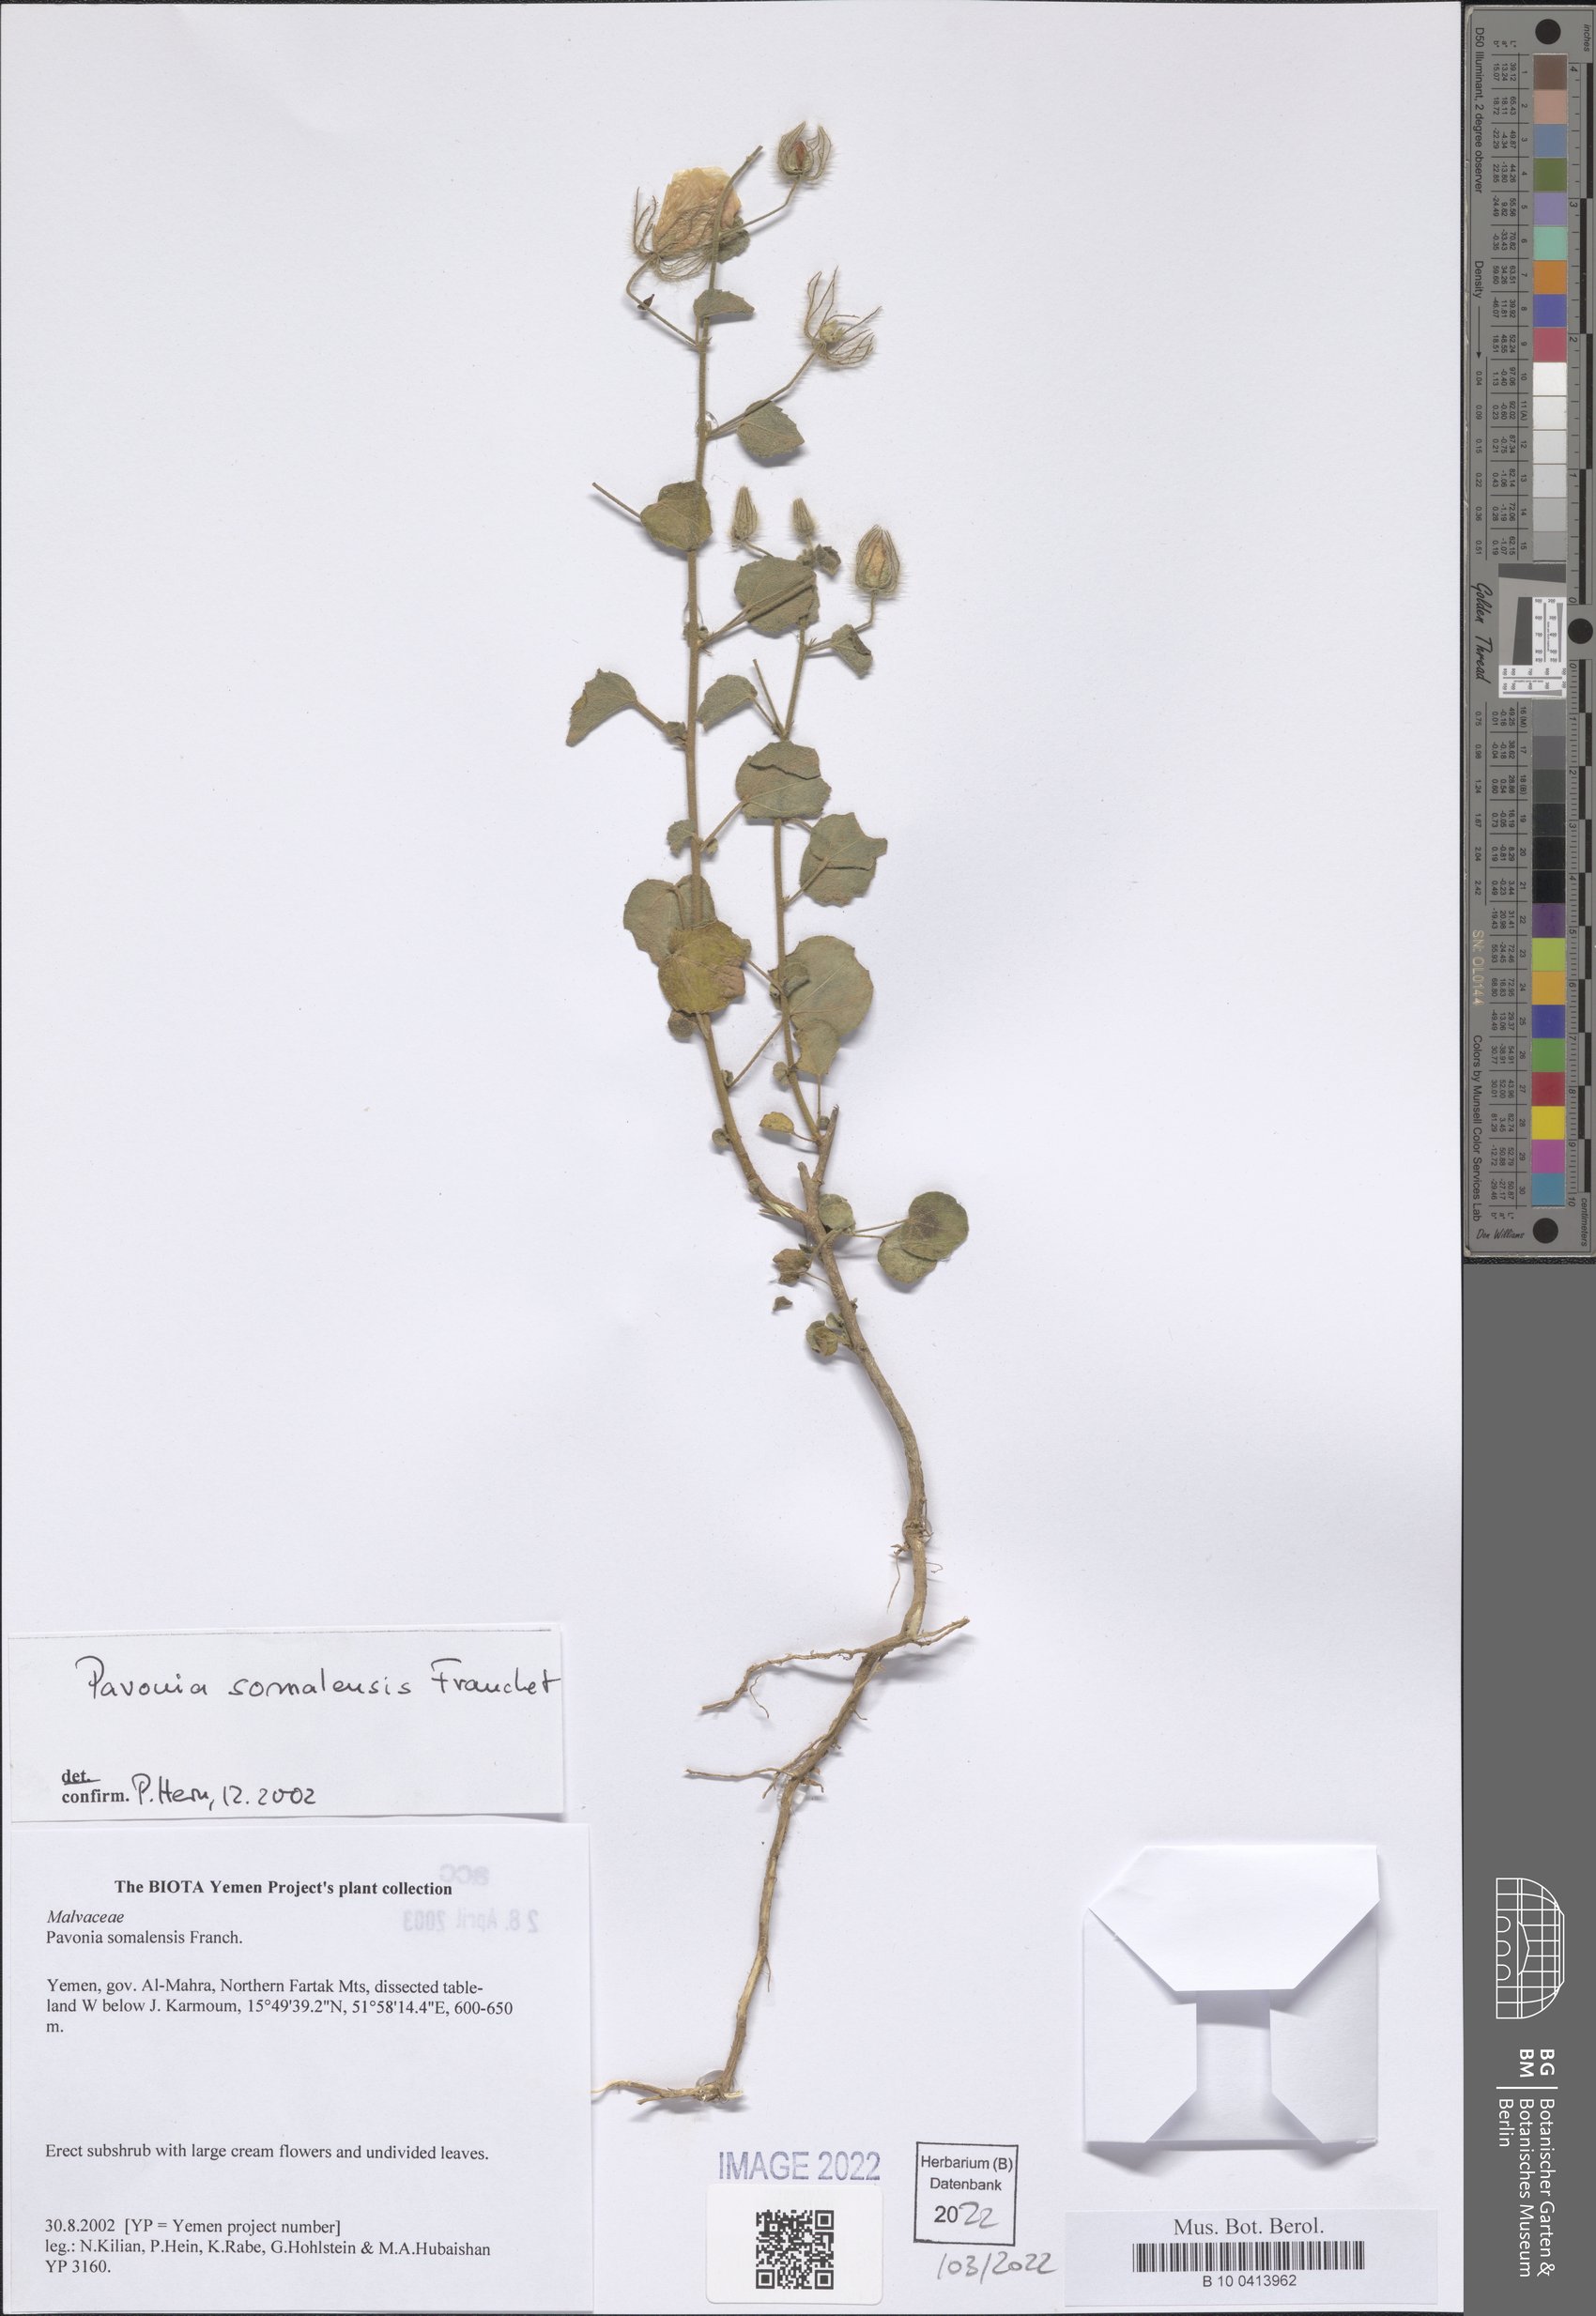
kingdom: Plantae
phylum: Tracheophyta
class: Magnoliopsida
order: Malvales
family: Malvaceae
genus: Pavonia
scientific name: Pavonia somalensis
